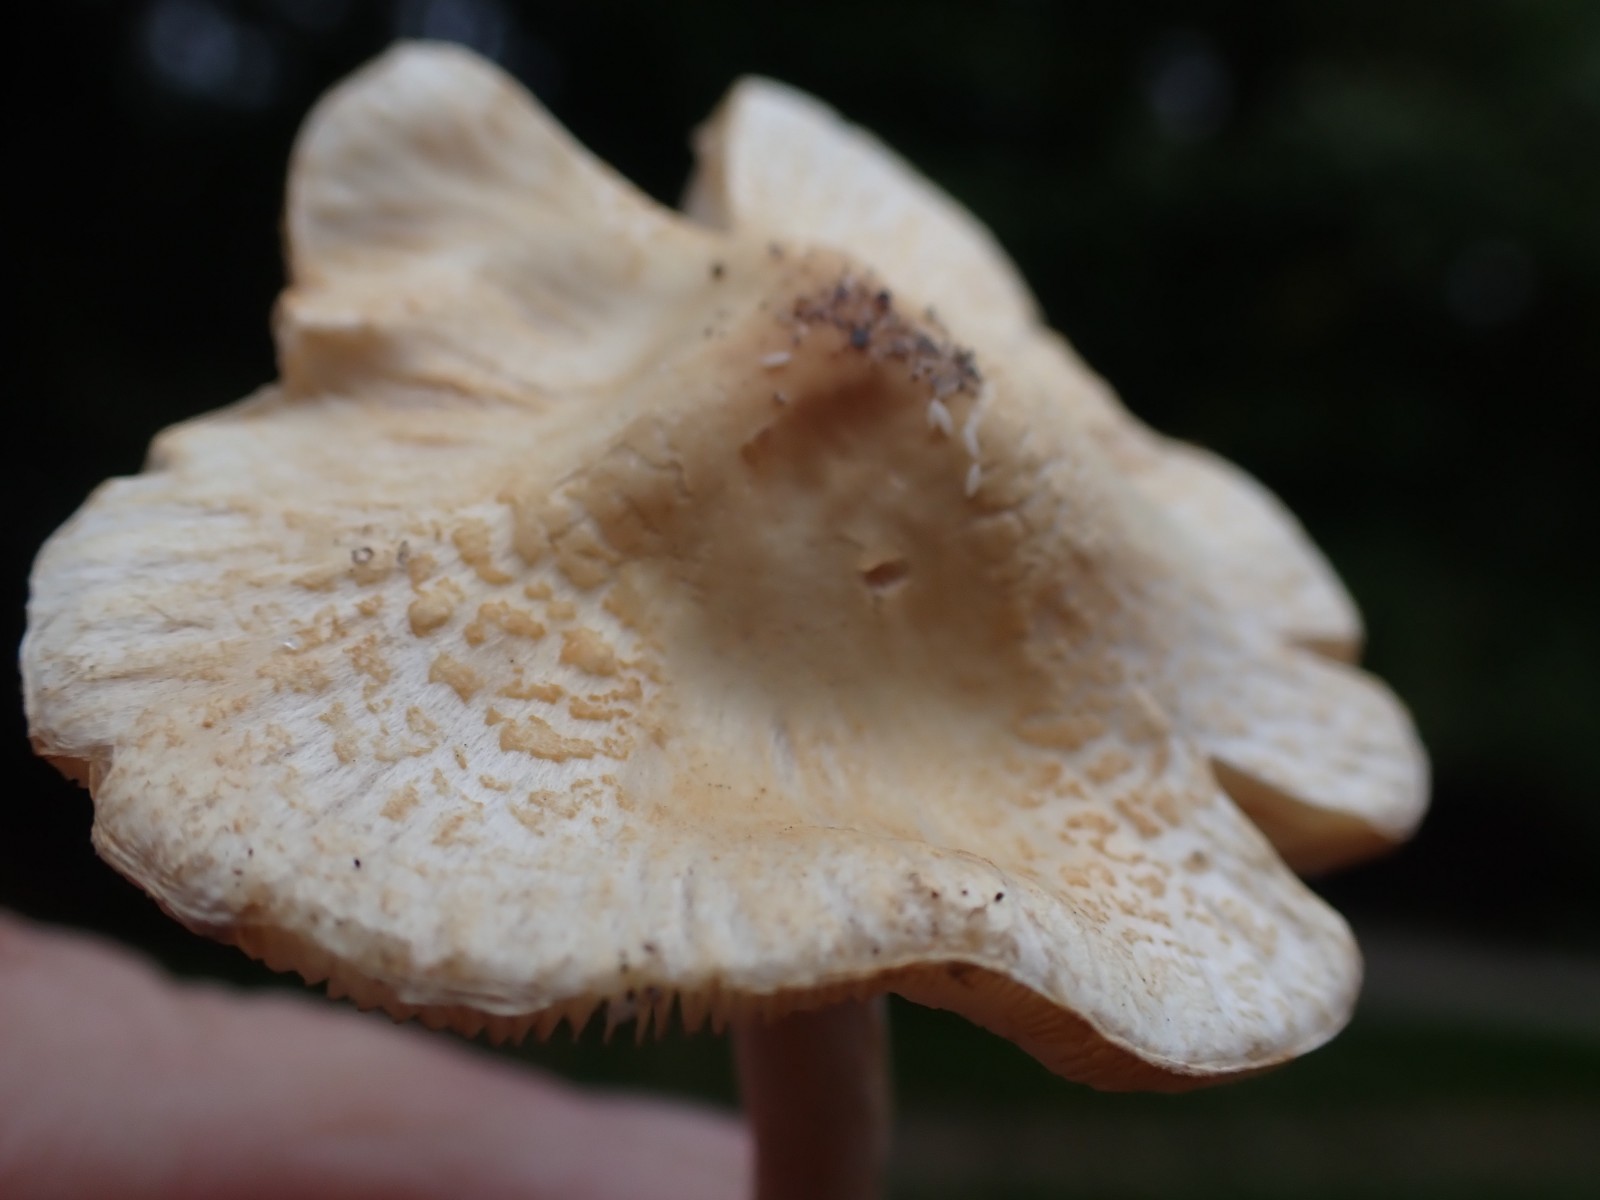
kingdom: Fungi
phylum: Basidiomycota
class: Agaricomycetes
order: Agaricales
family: Agaricaceae
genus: Lepiota
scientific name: Lepiota cristata
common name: stinkende parasolhat
